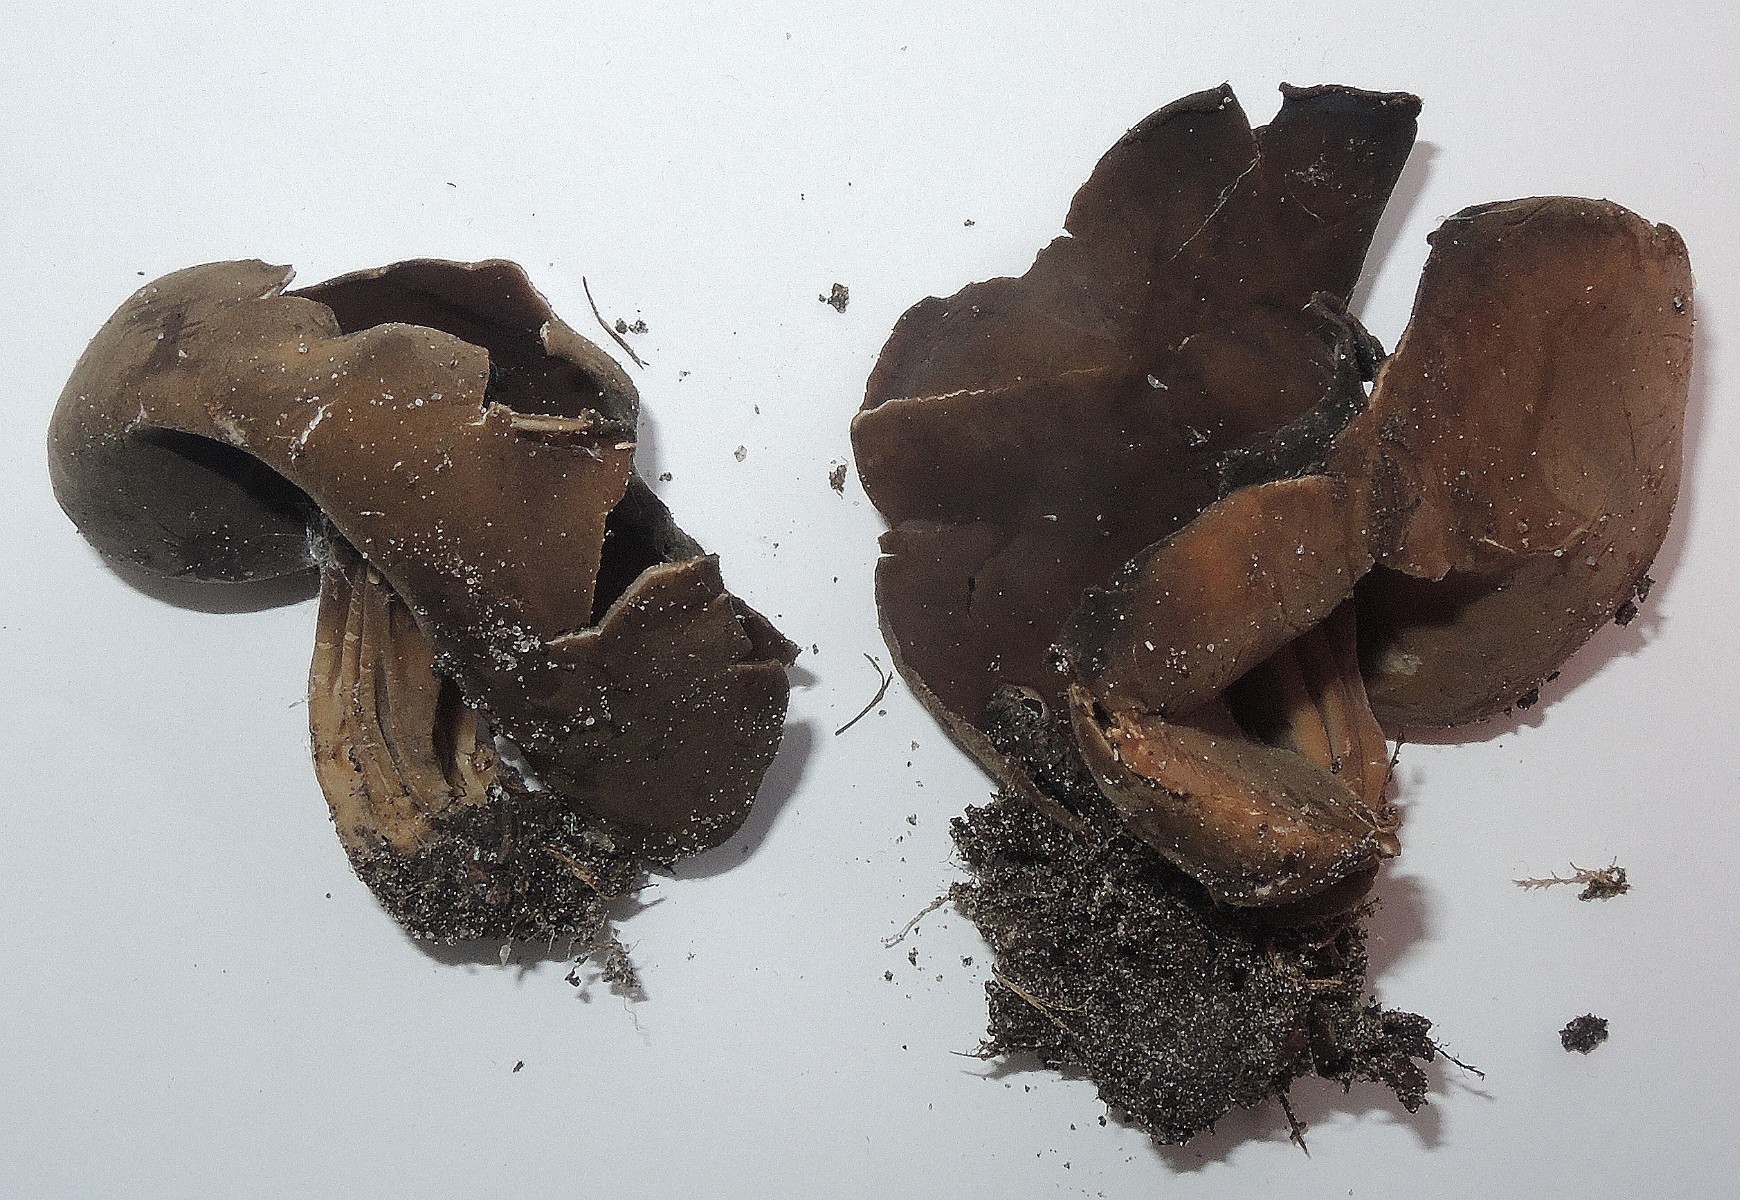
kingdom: Fungi
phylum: Ascomycota
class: Pezizomycetes
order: Pezizales
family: Helvellaceae
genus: Helvella
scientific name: Helvella solitaria
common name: Quélets foldhat
